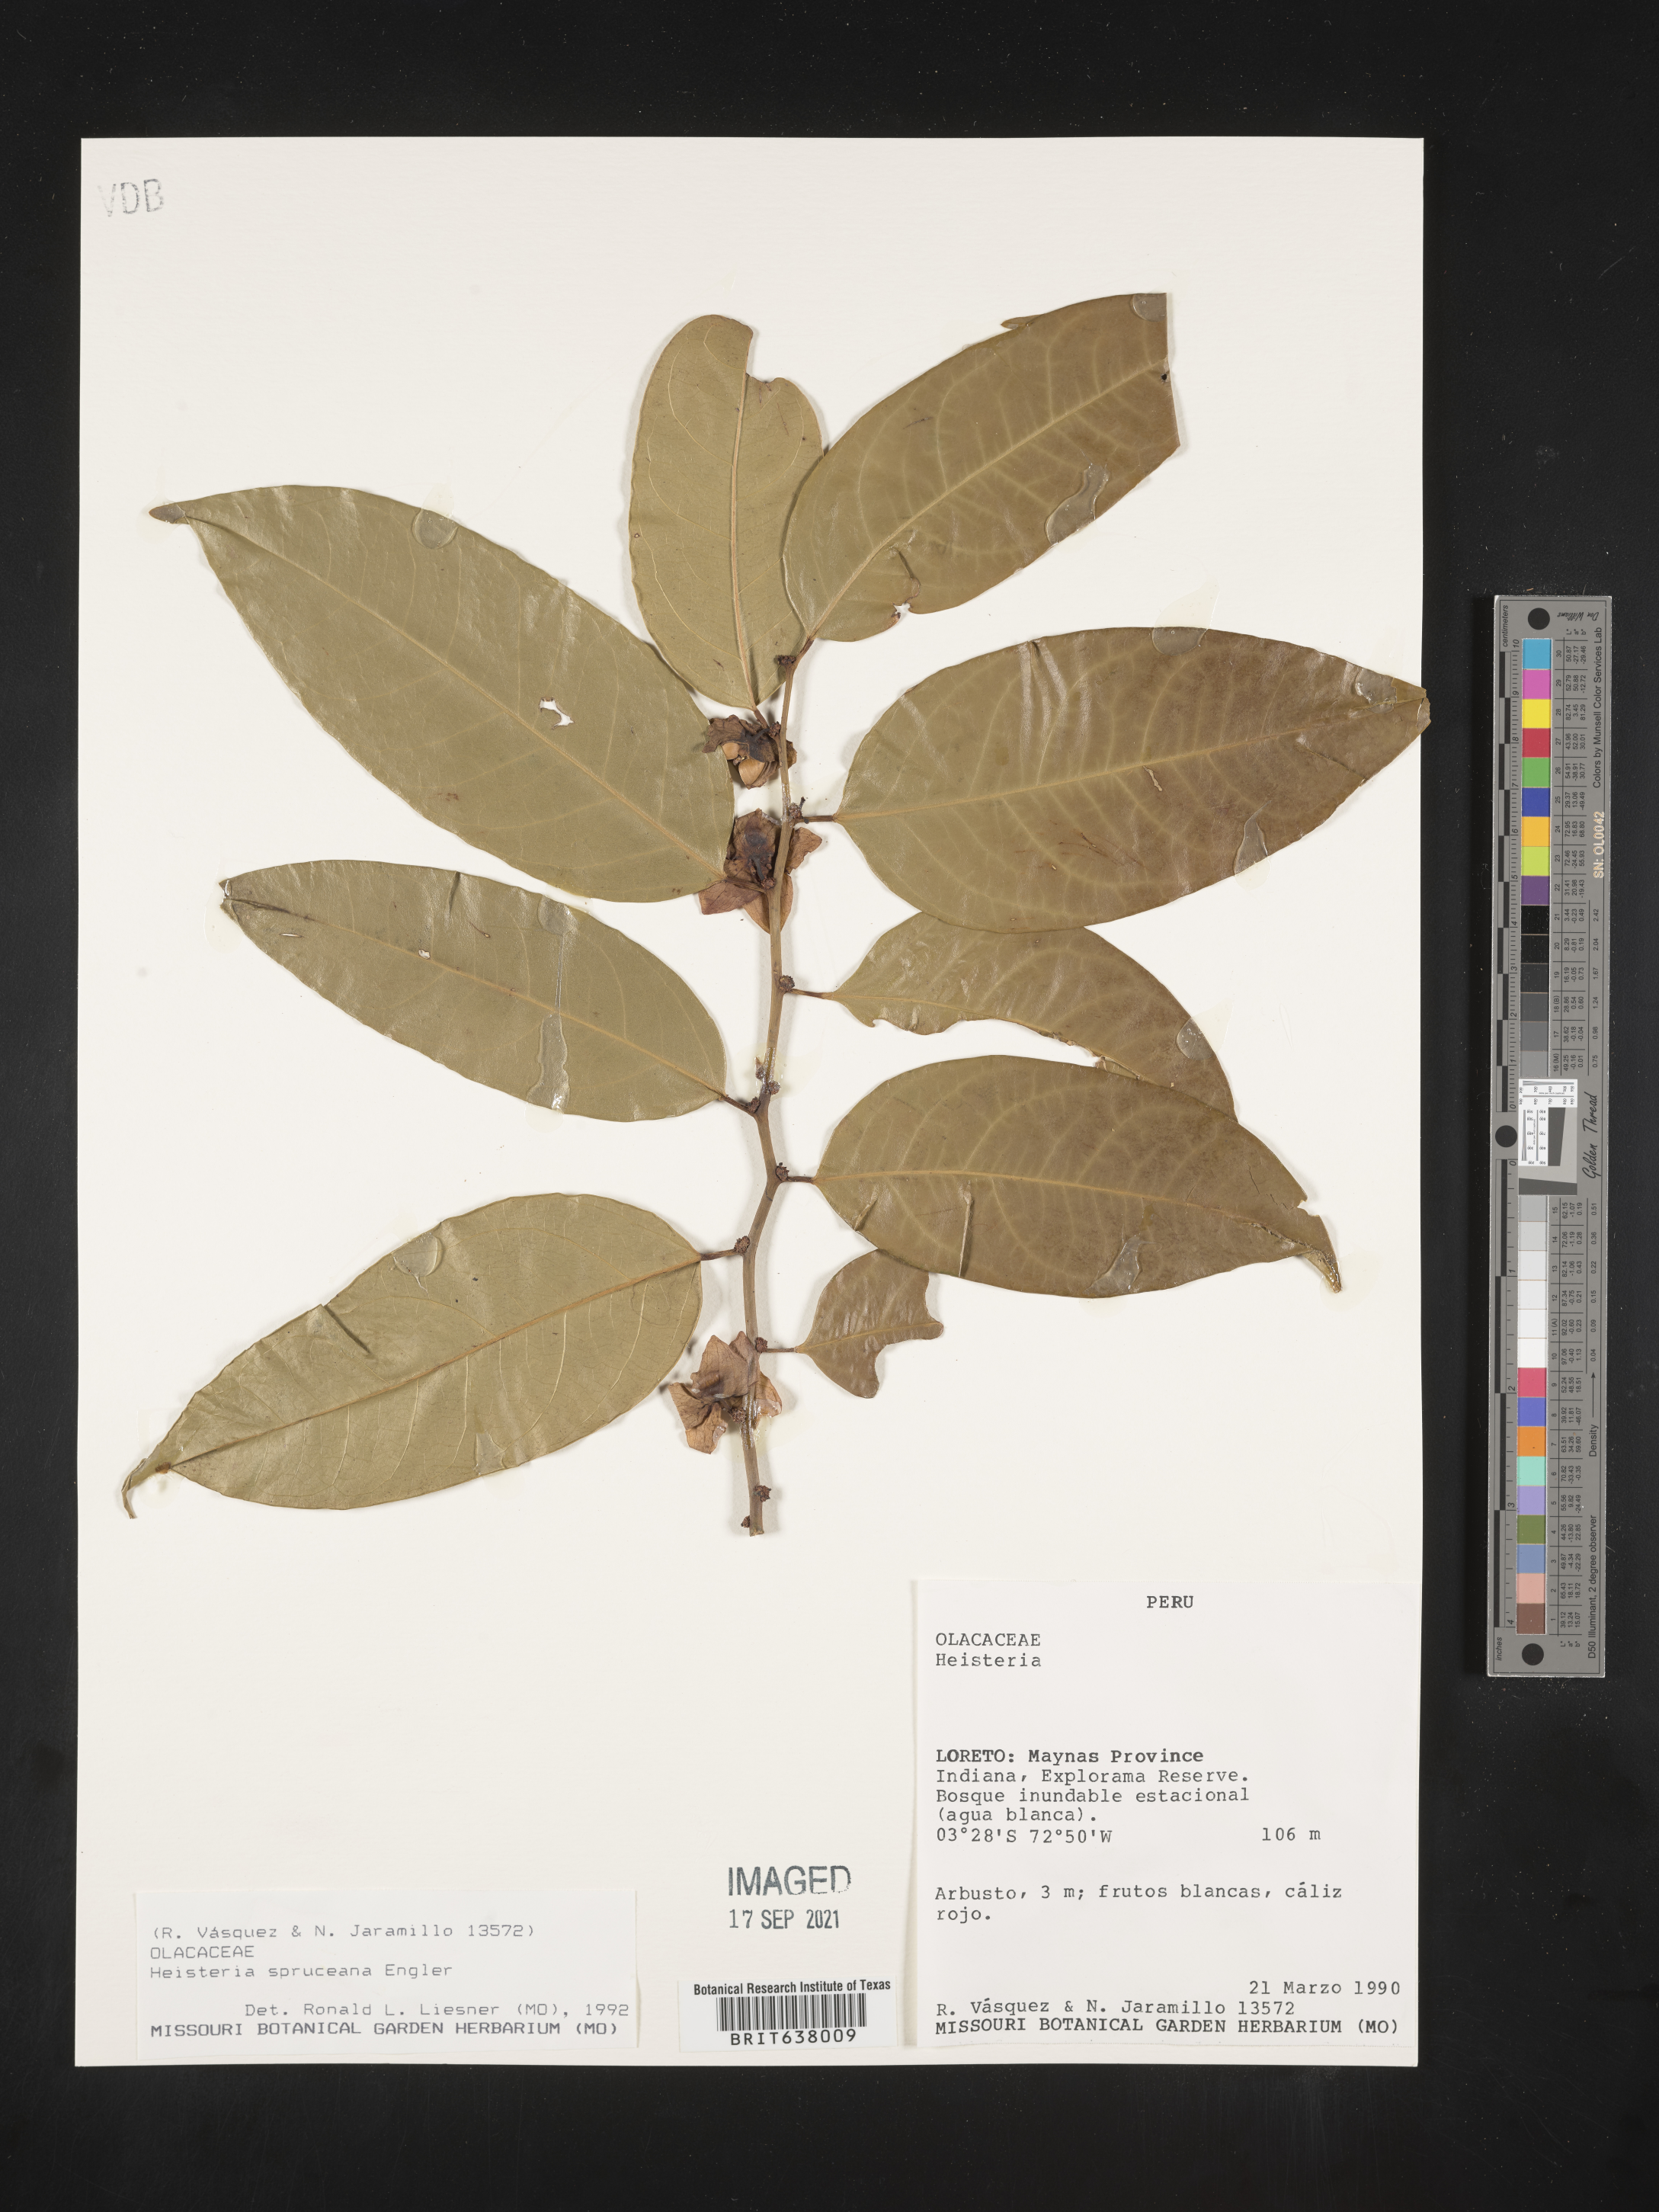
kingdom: Plantae
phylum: Tracheophyta
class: Magnoliopsida
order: Santalales
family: Erythropalaceae
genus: Heisteria
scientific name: Heisteria
